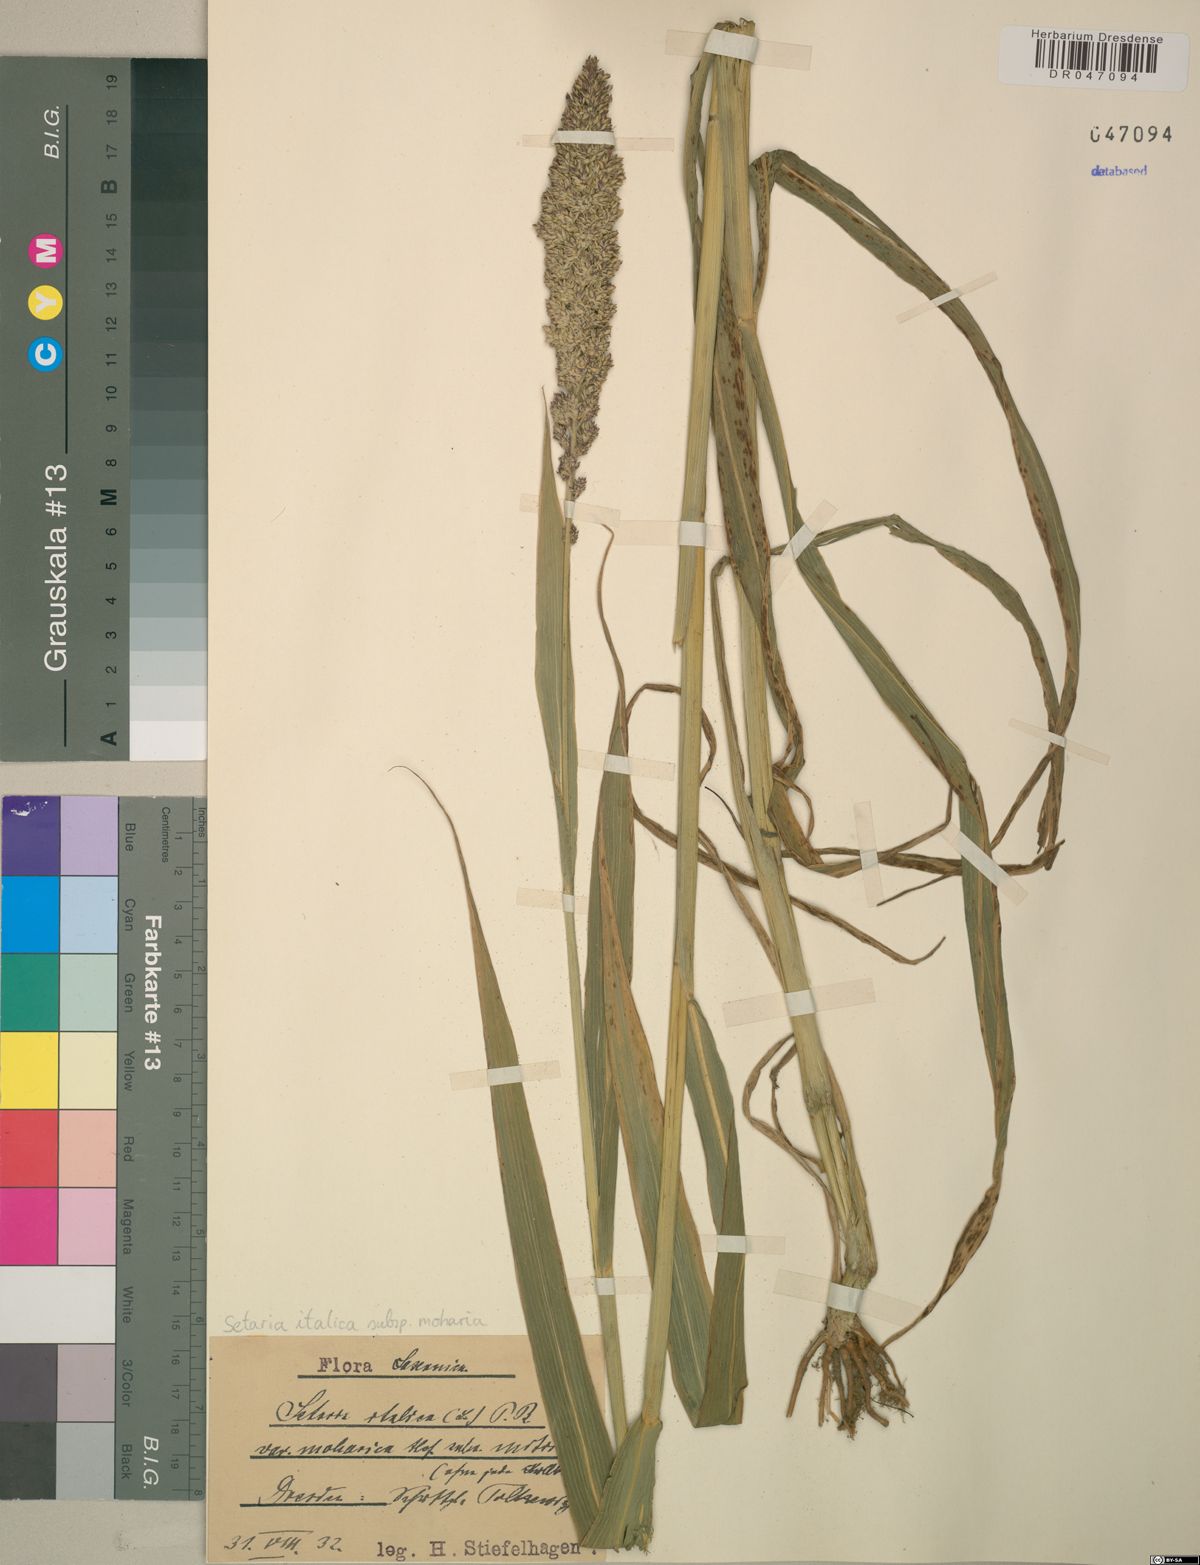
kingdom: Plantae
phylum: Tracheophyta
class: Liliopsida
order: Poales
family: Poaceae
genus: Setaria
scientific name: Setaria italica
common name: Foxtail bristle-grass
